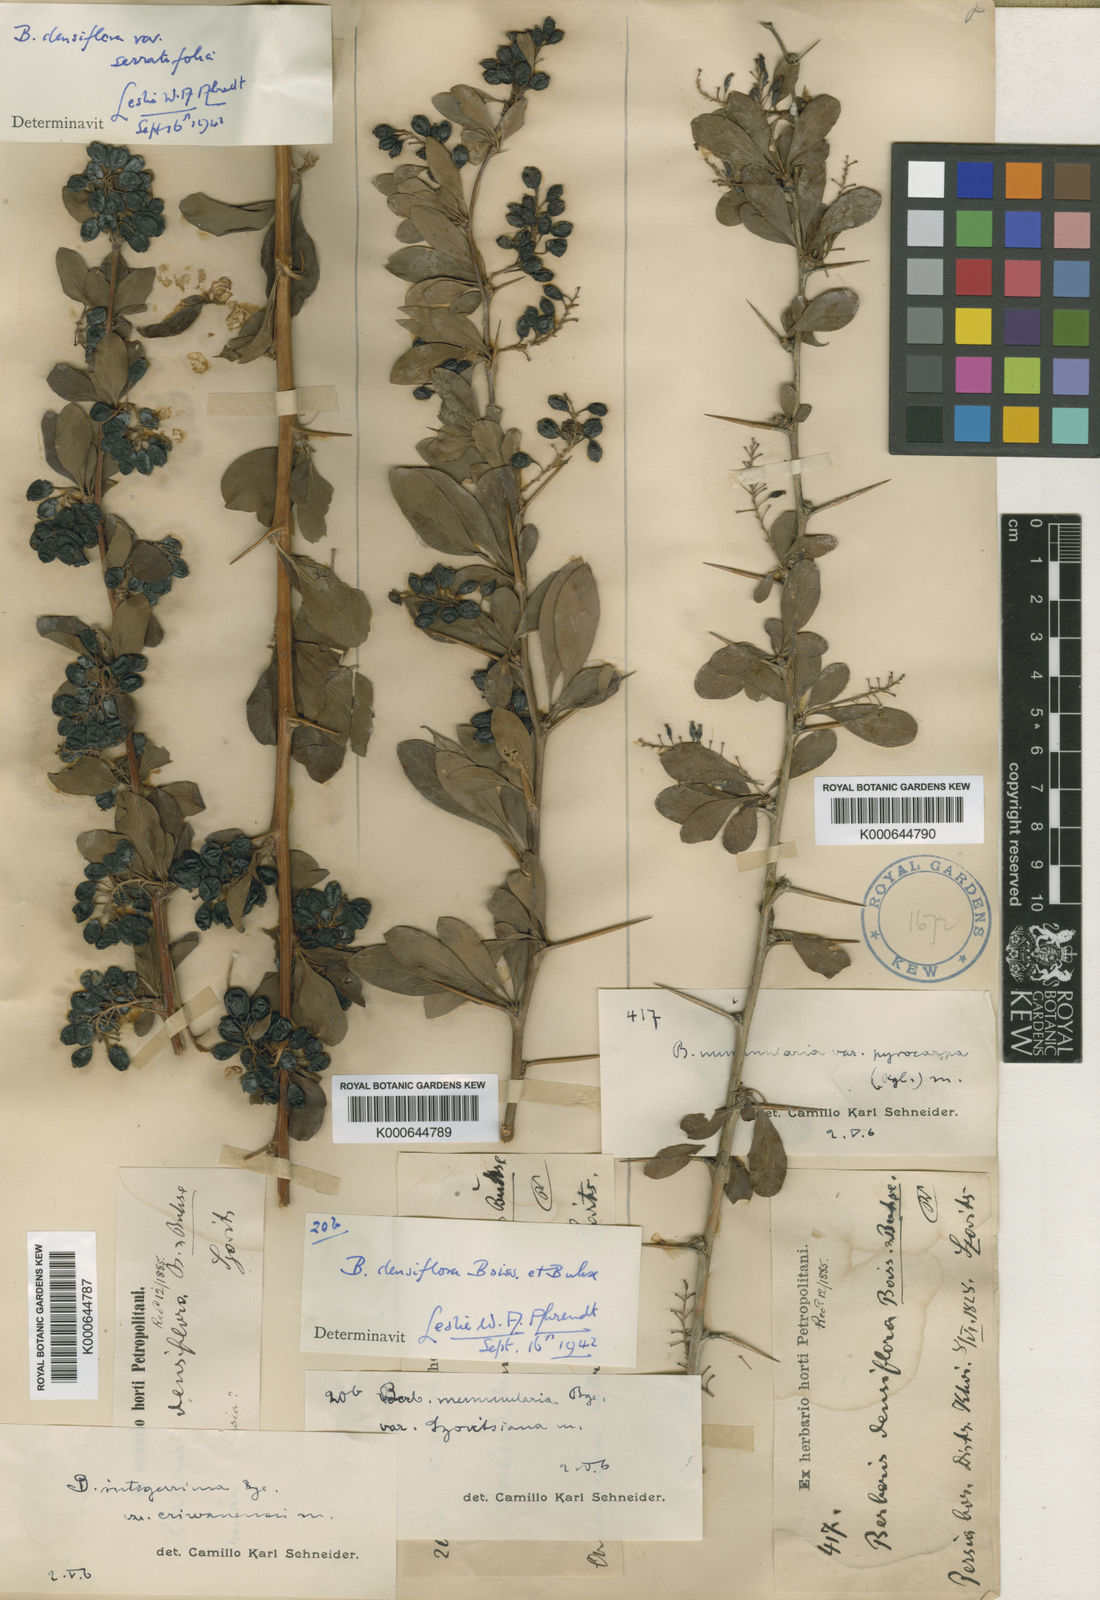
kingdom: Plantae
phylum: Tracheophyta
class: Magnoliopsida
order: Ranunculales
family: Berberidaceae
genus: Berberis
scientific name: Berberis integerrima
